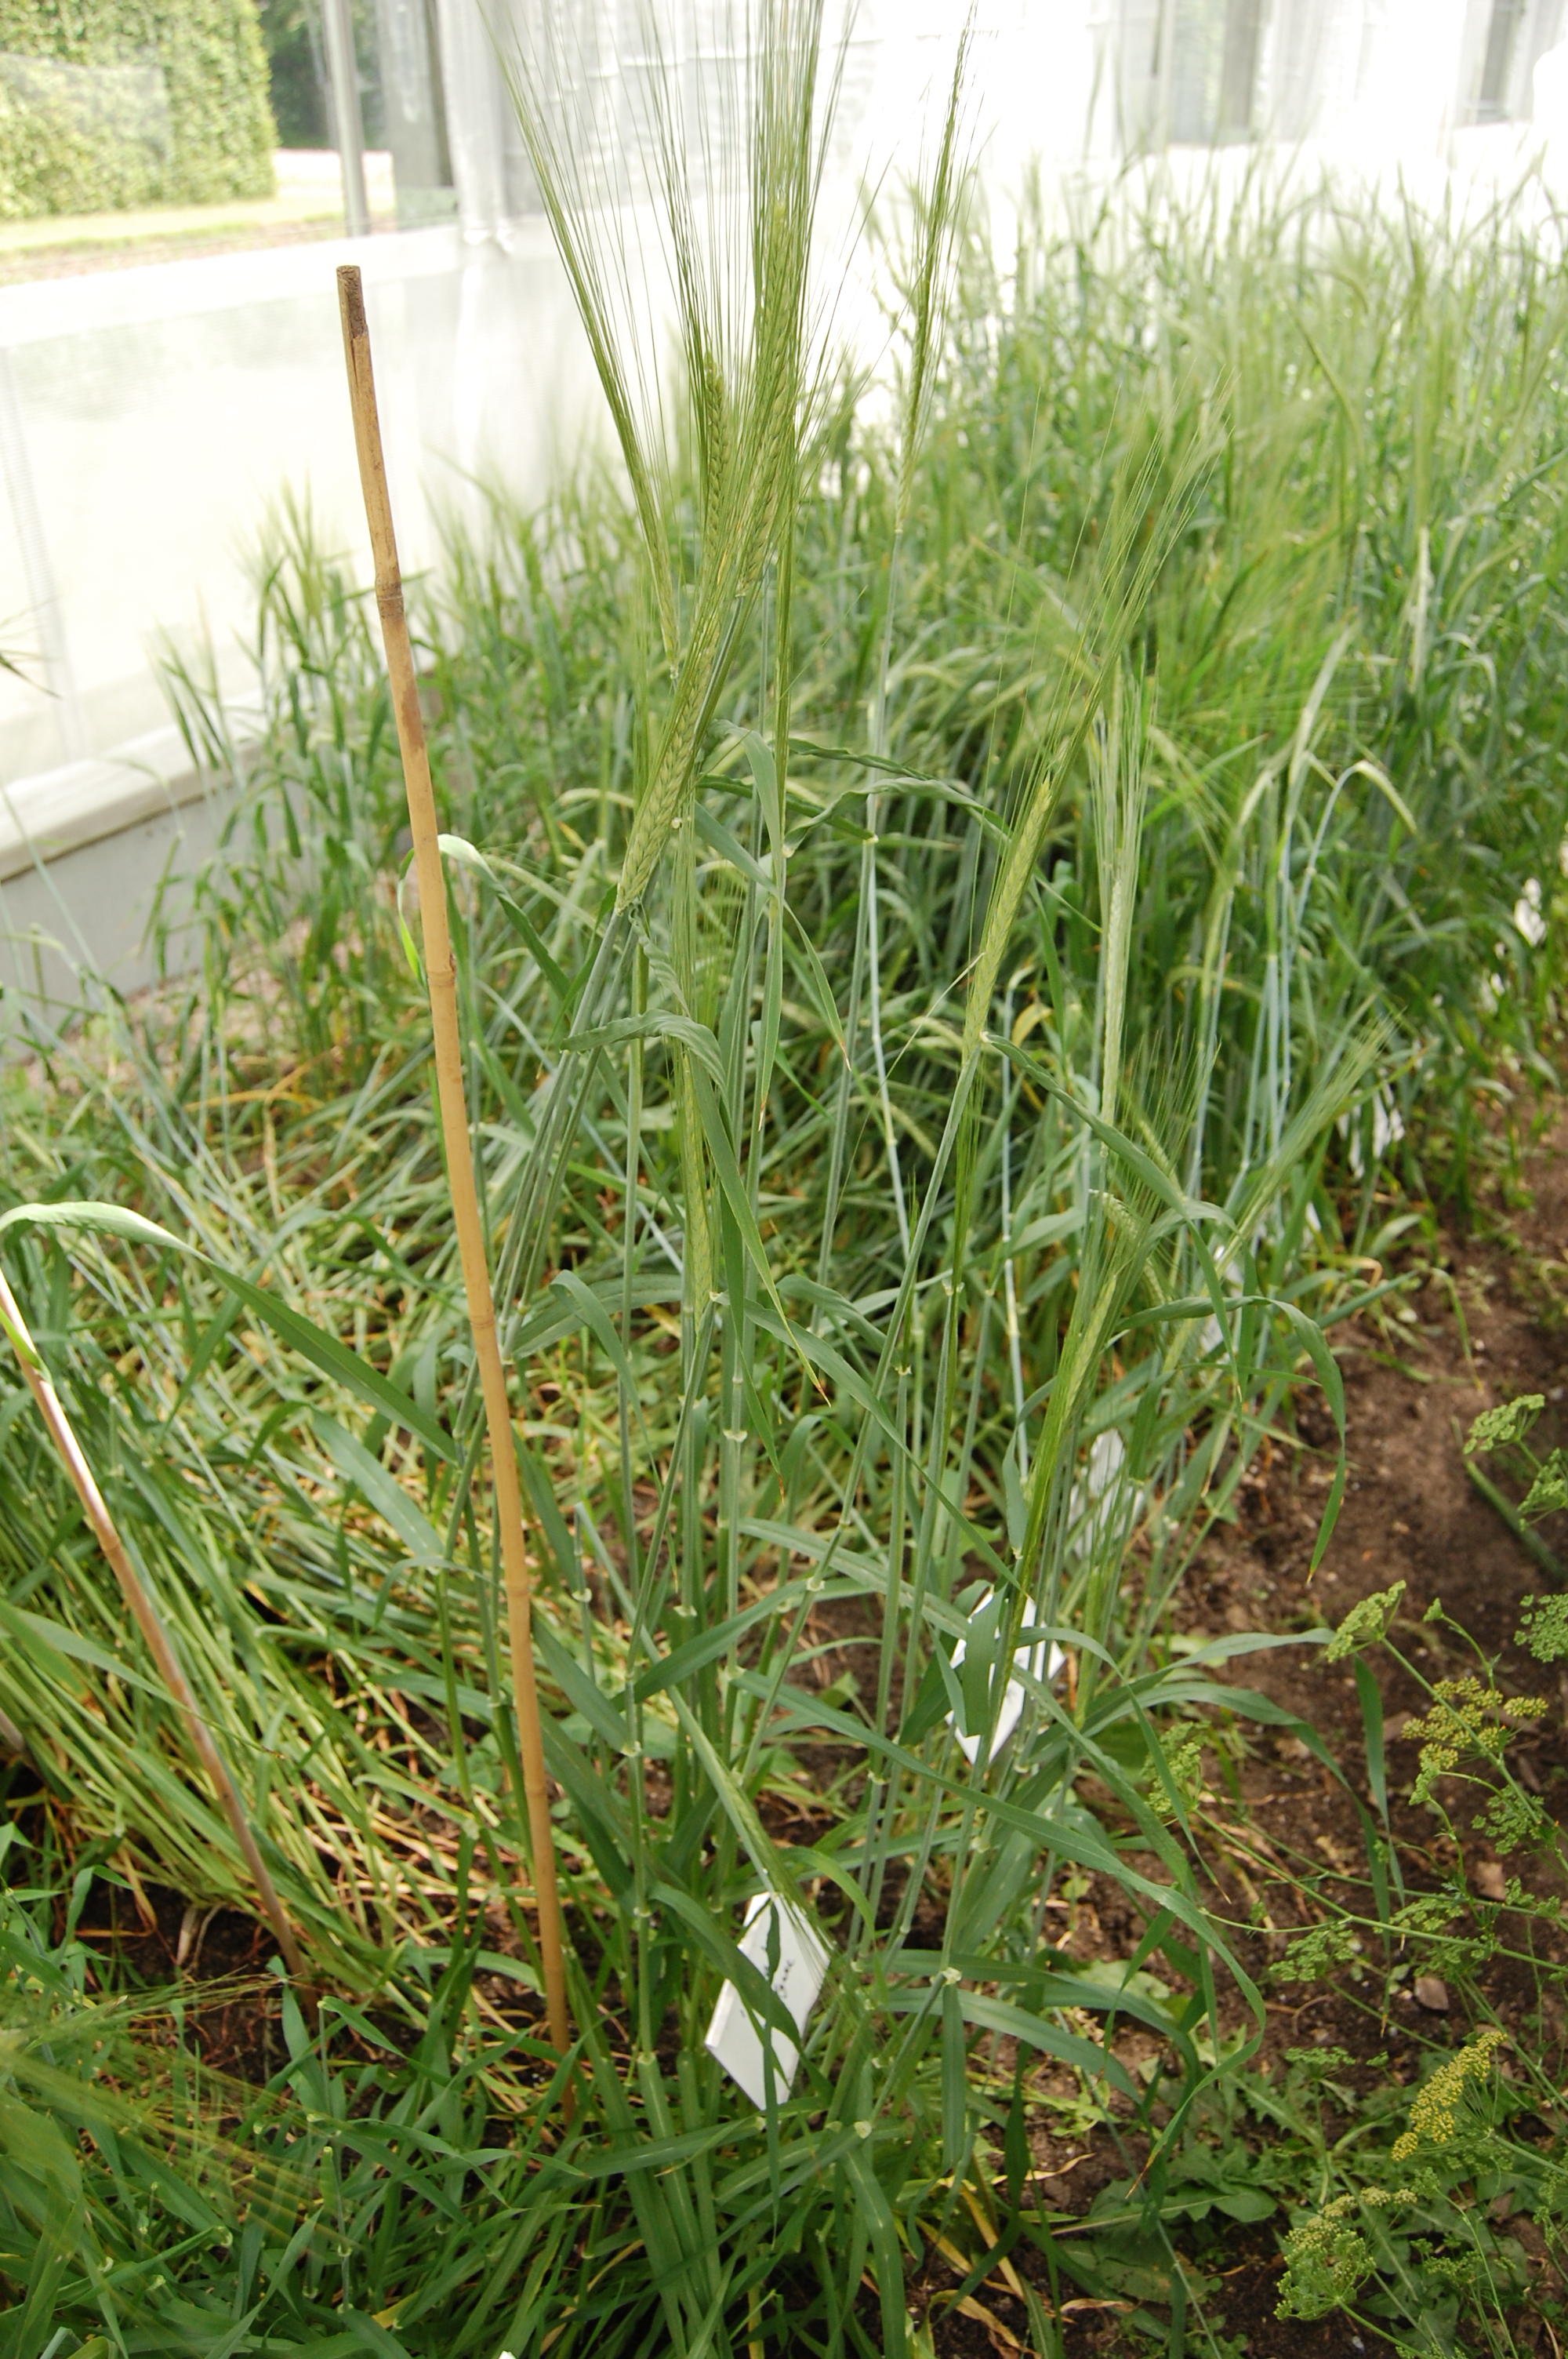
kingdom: Plantae
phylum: Tracheophyta
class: Liliopsida
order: Poales
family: Poaceae
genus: Hordeum
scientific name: Hordeum vulgare
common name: Common barley
